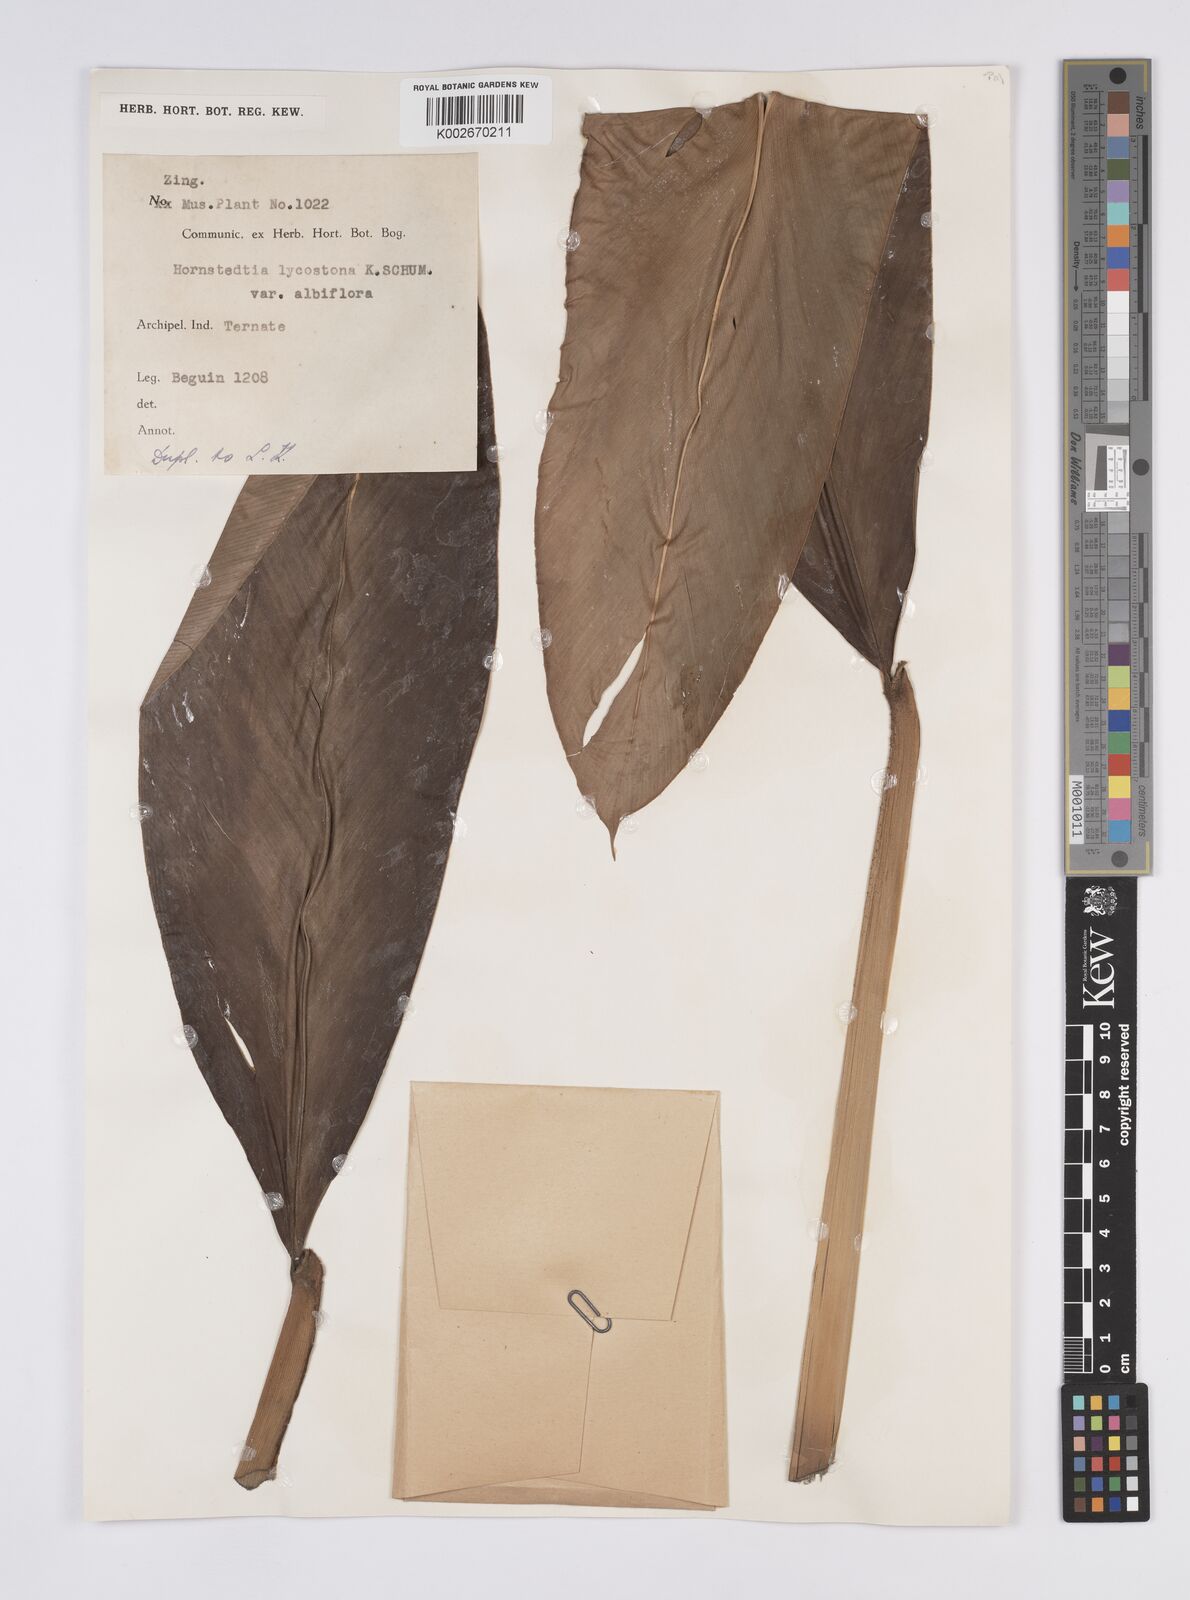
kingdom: Plantae
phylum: Tracheophyta
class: Liliopsida
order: Zingiberales
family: Zingiberaceae
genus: Hornstedtia
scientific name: Hornstedtia scottiana
